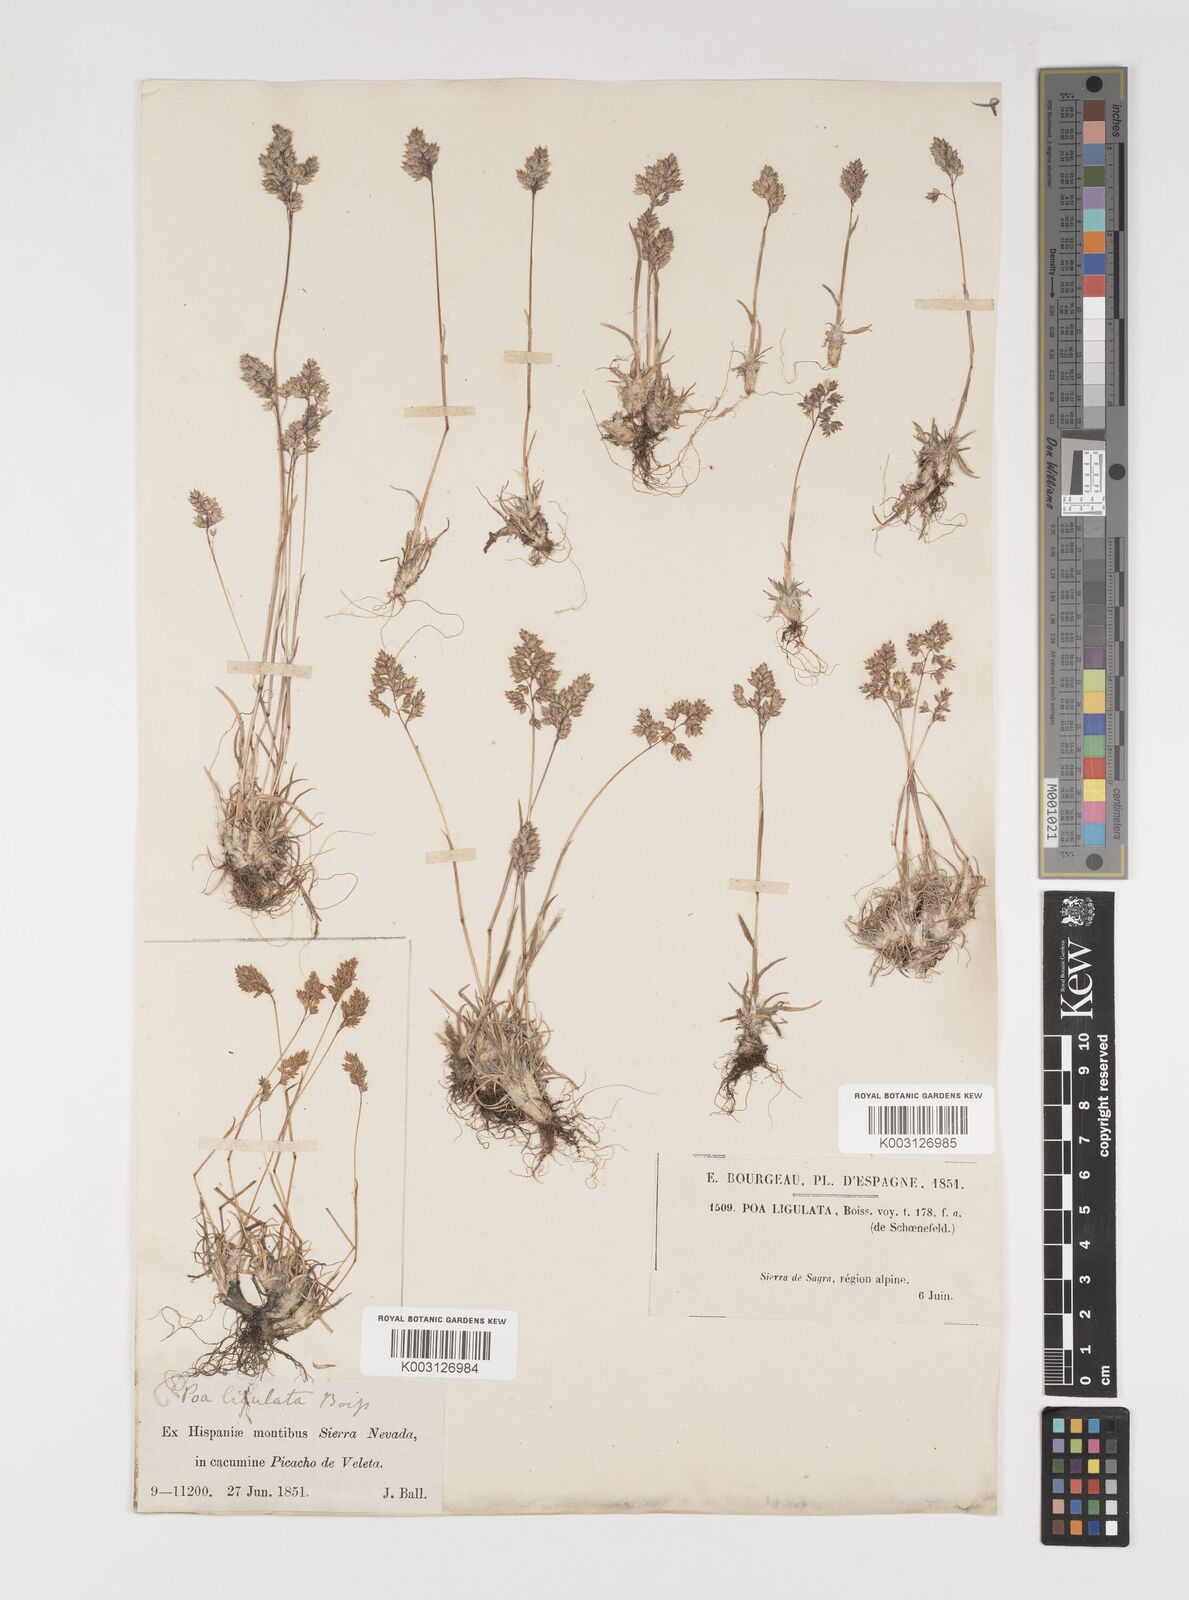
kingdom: Plantae
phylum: Tracheophyta
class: Liliopsida
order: Poales
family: Poaceae
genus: Poa
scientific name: Poa ligulata
